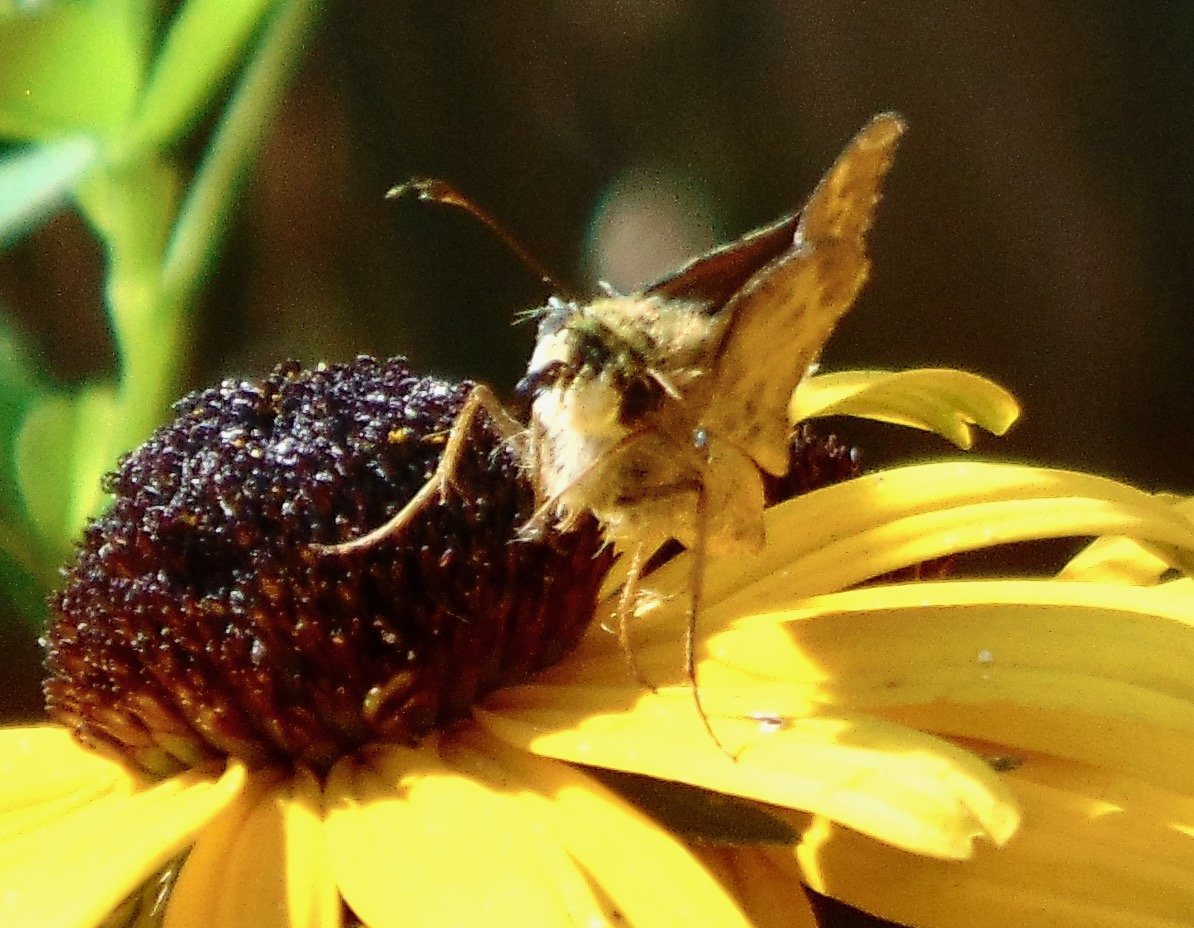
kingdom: Animalia
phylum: Arthropoda
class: Insecta
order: Lepidoptera
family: Hesperiidae
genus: Atalopedes
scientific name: Atalopedes campestris
